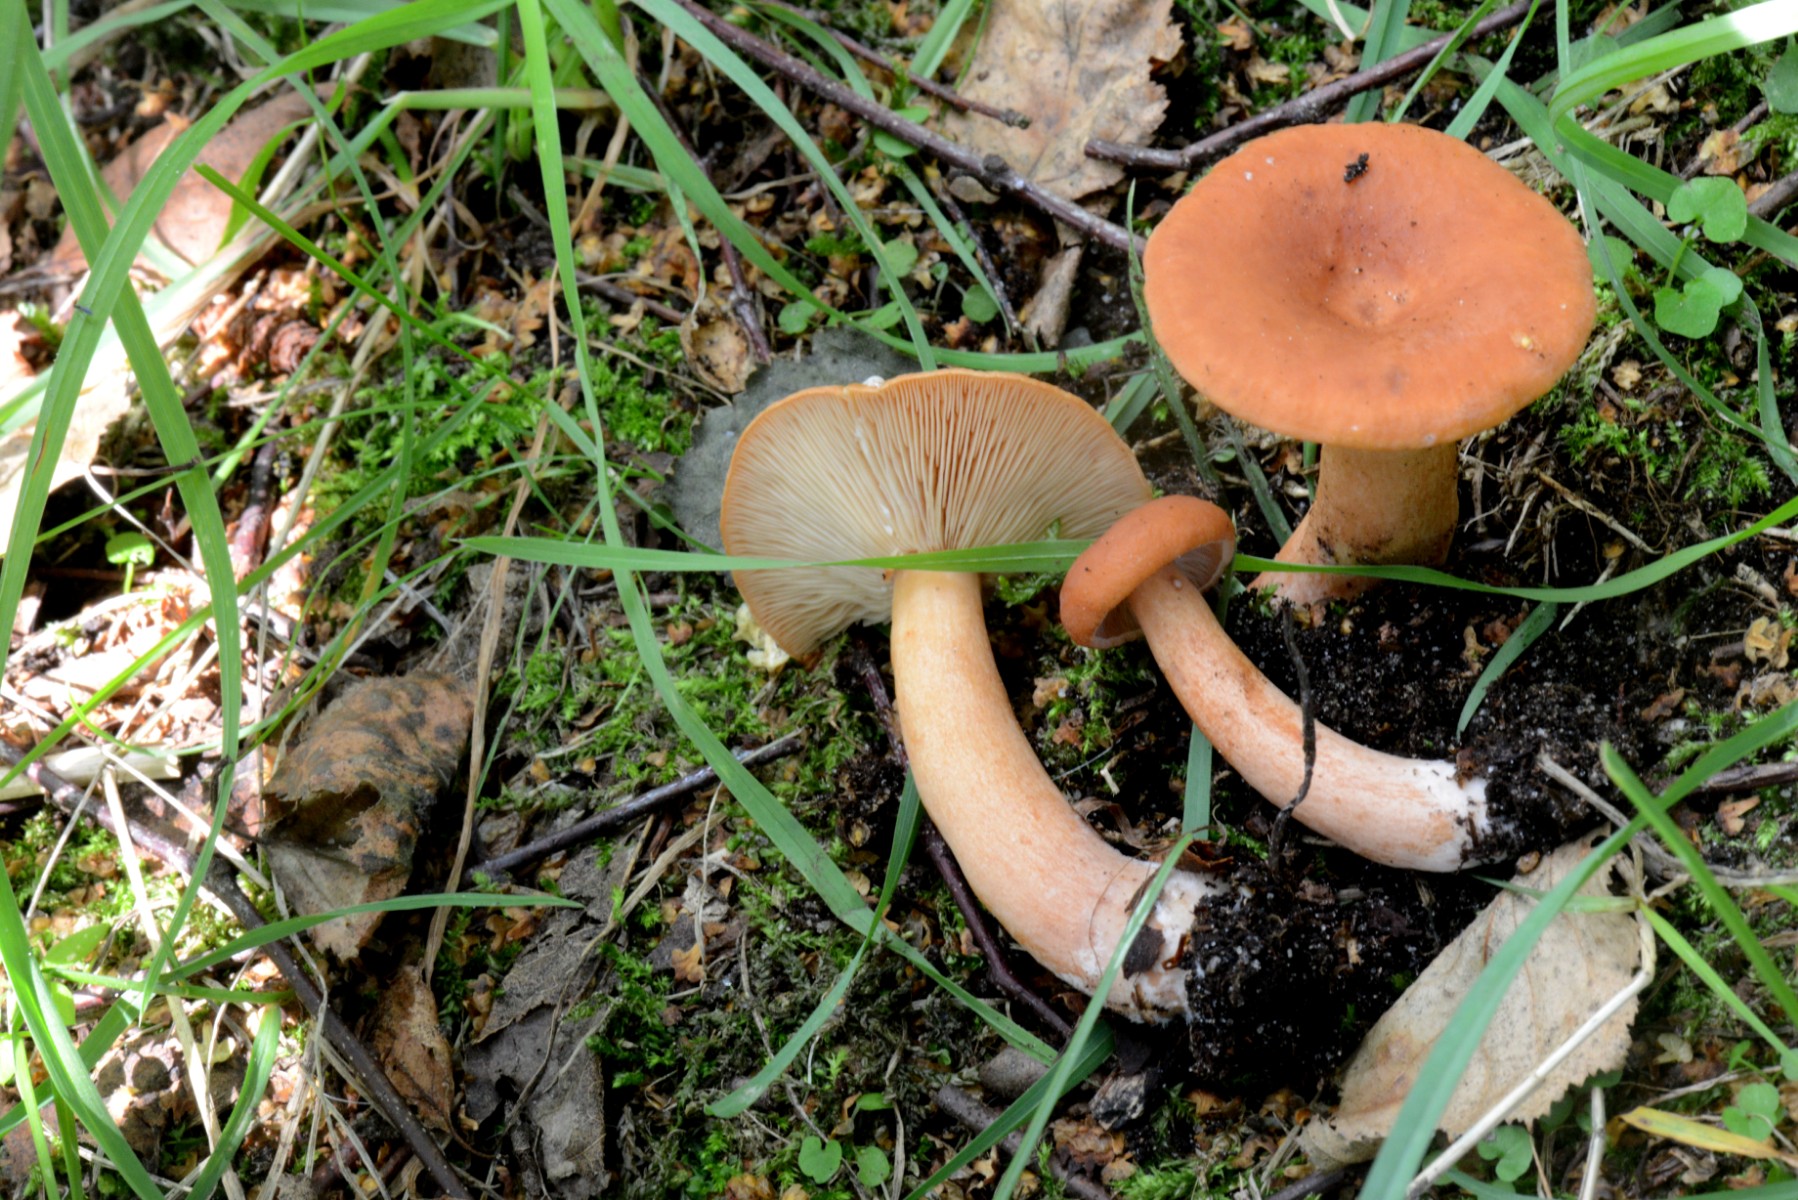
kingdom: Fungi
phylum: Basidiomycota
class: Agaricomycetes
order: Russulales
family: Russulaceae
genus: Lactarius
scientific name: Lactarius aurantiacus
